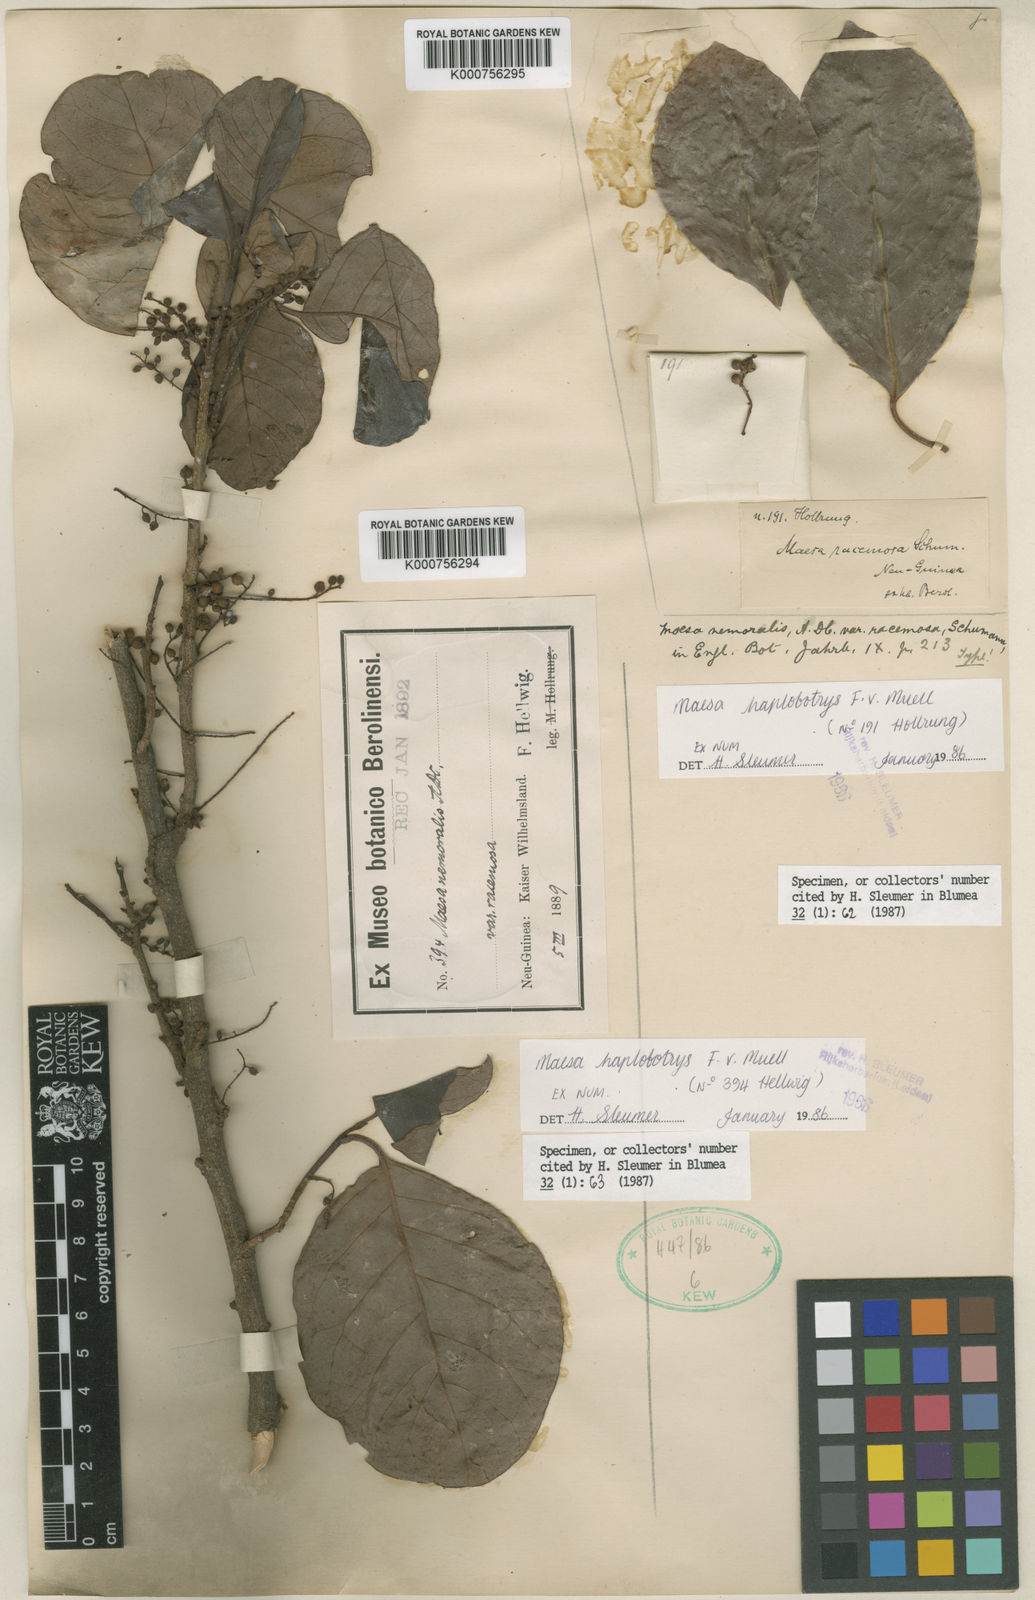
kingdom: Plantae
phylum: Tracheophyta
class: Magnoliopsida
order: Ericales
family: Primulaceae
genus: Maesa
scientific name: Maesa haplobotrys
